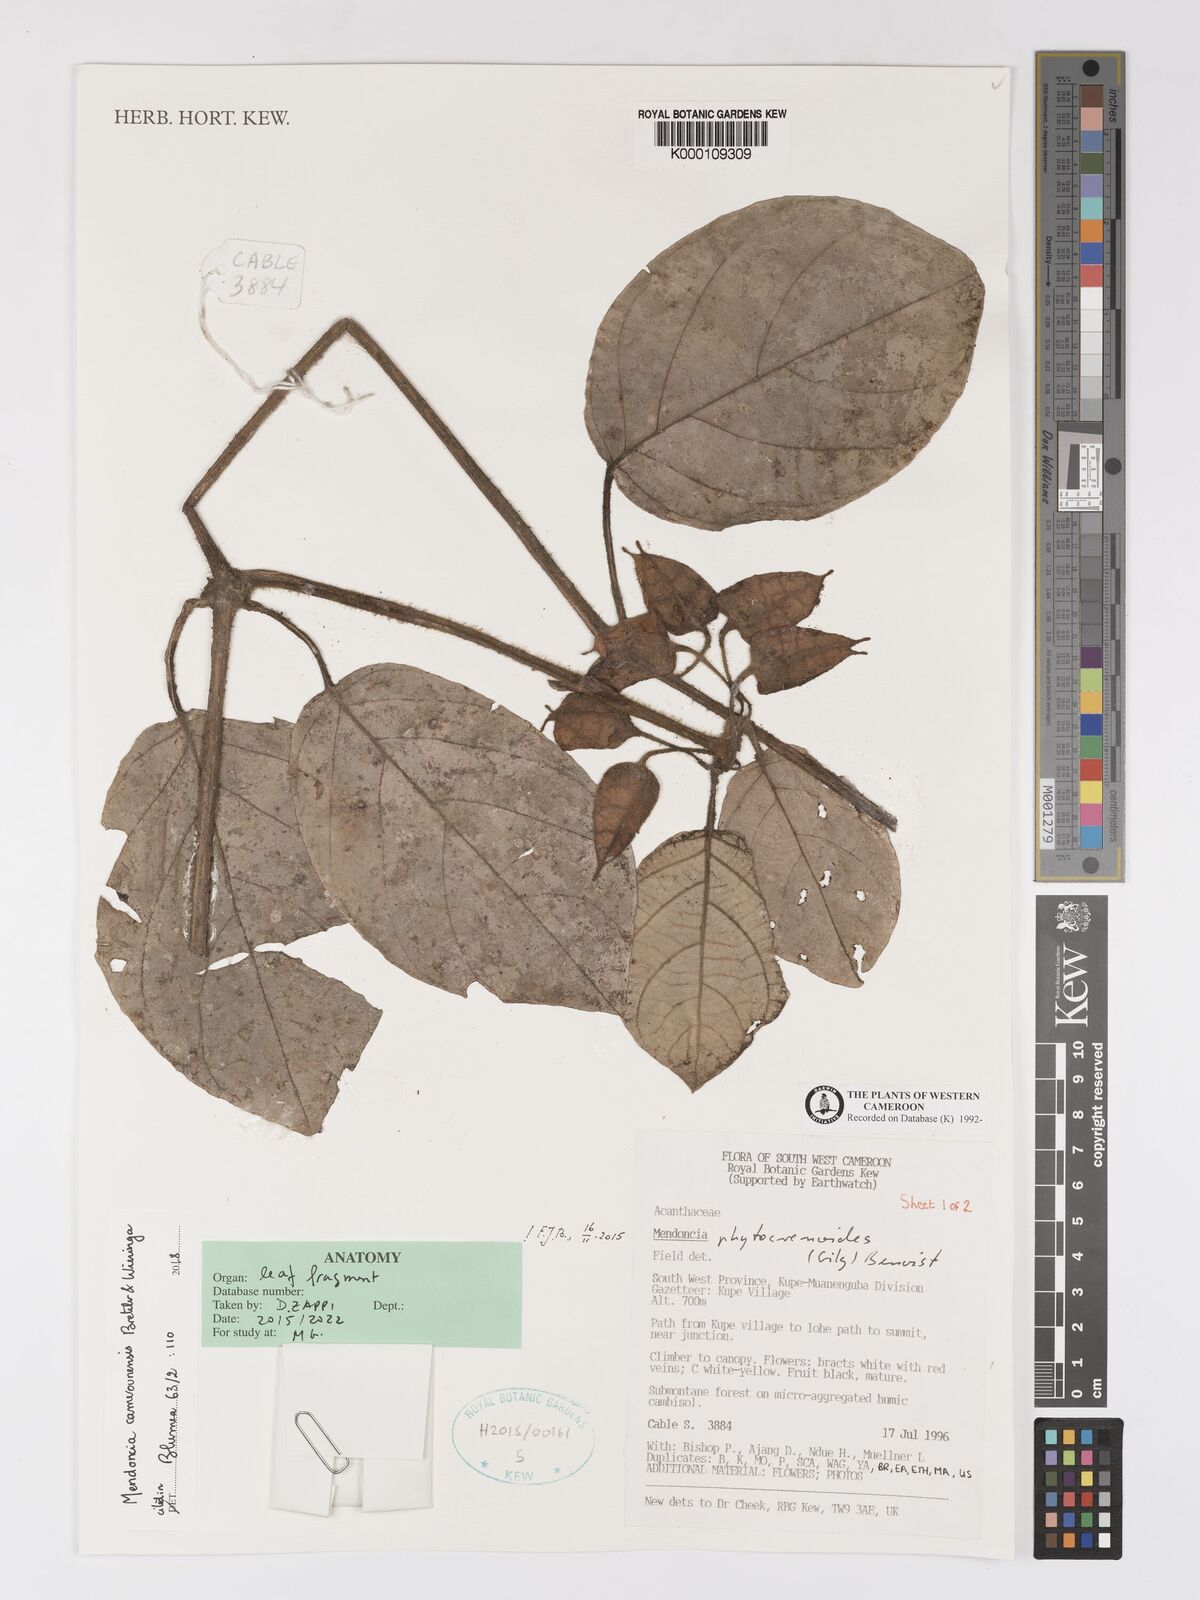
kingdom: Plantae
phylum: Tracheophyta
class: Magnoliopsida
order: Lamiales
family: Acanthaceae
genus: Mendoncia
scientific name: Mendoncia
